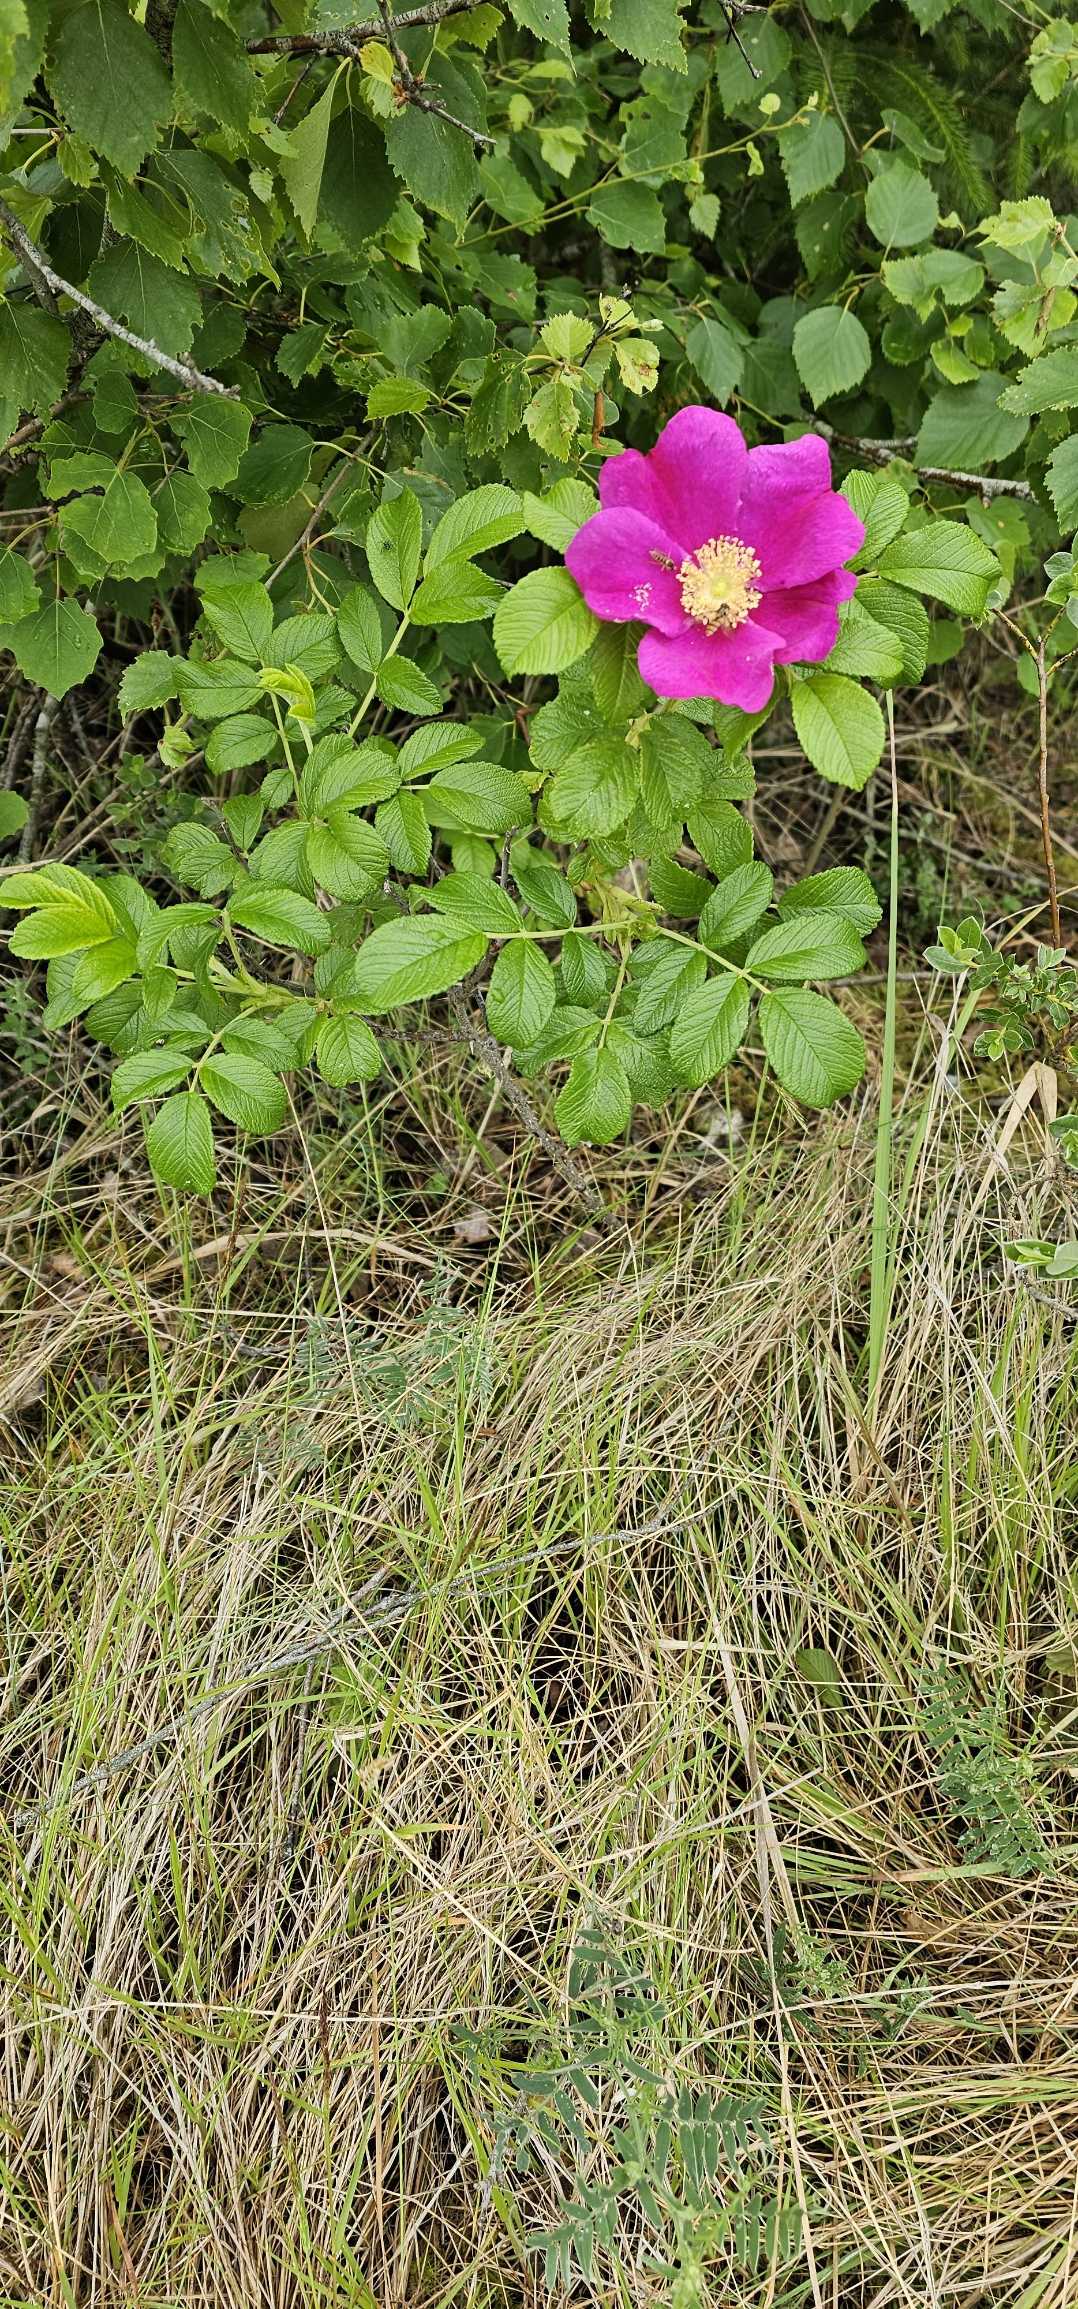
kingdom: Plantae
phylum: Tracheophyta
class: Magnoliopsida
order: Rosales
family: Rosaceae
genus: Rosa
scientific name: Rosa rugosa
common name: Rynket rose
